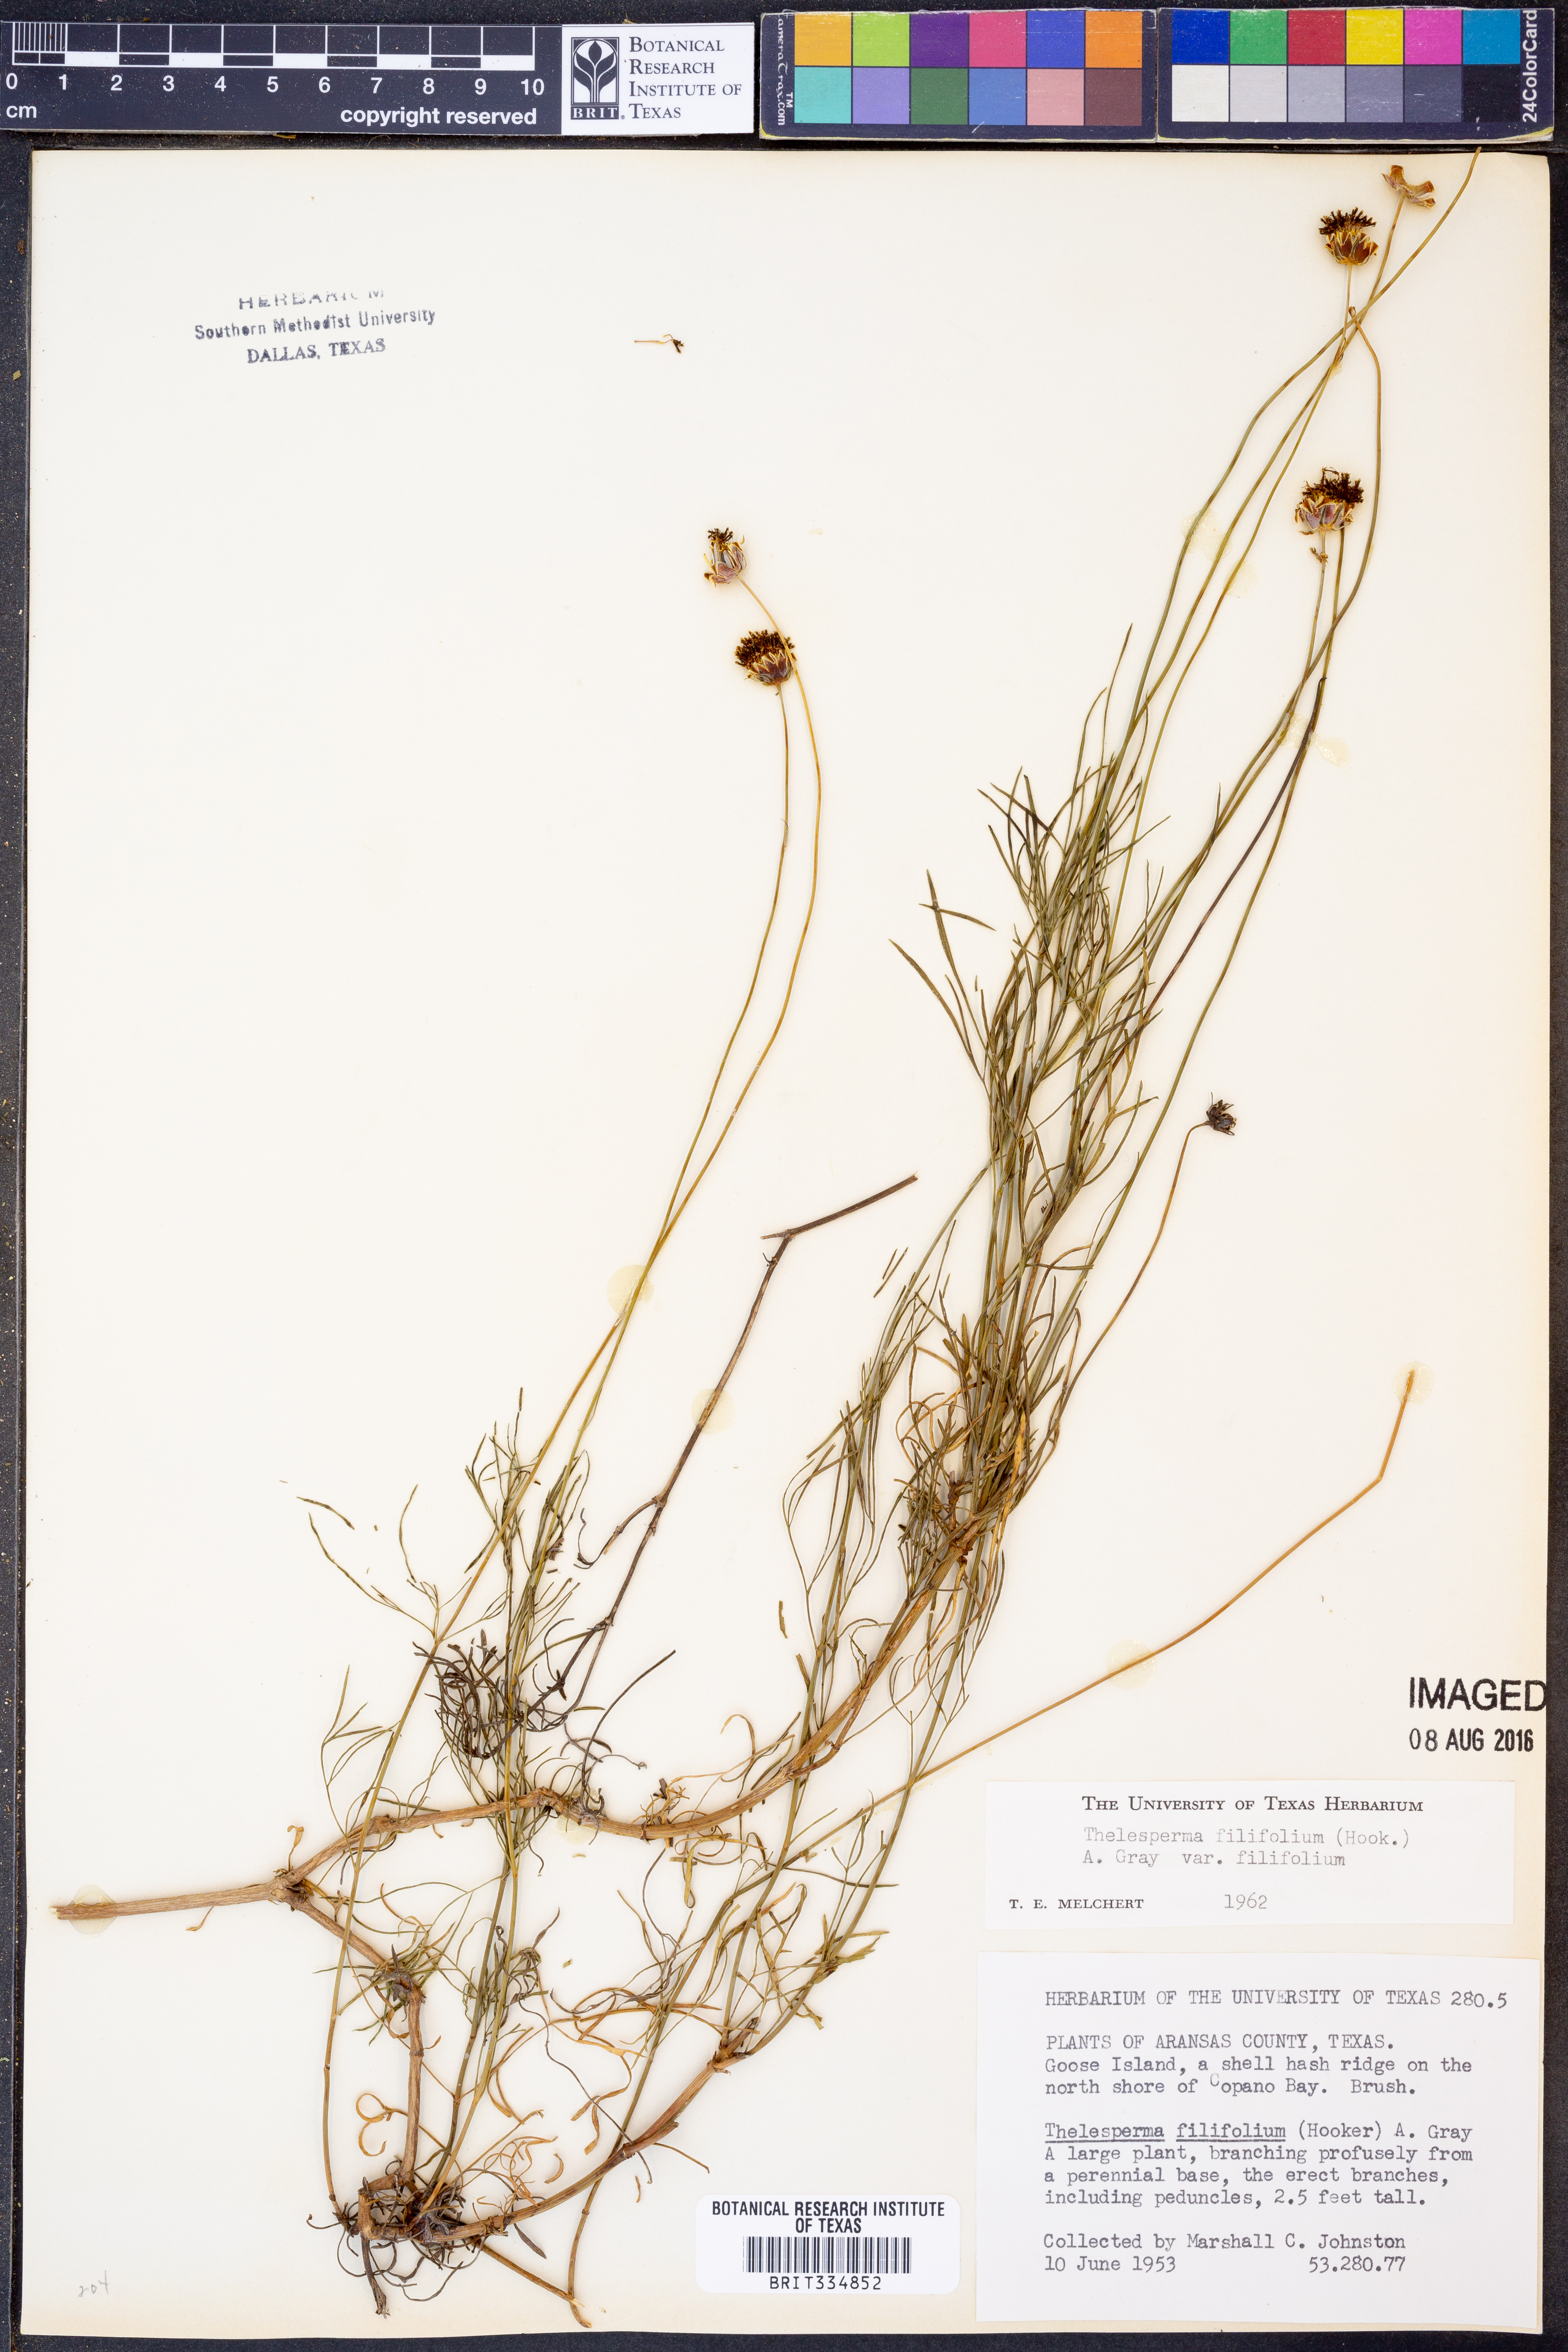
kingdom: Plantae
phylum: Tracheophyta
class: Magnoliopsida
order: Asterales
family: Asteraceae
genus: Thelesperma
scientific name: Thelesperma filifolium
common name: Stiff greenthread
